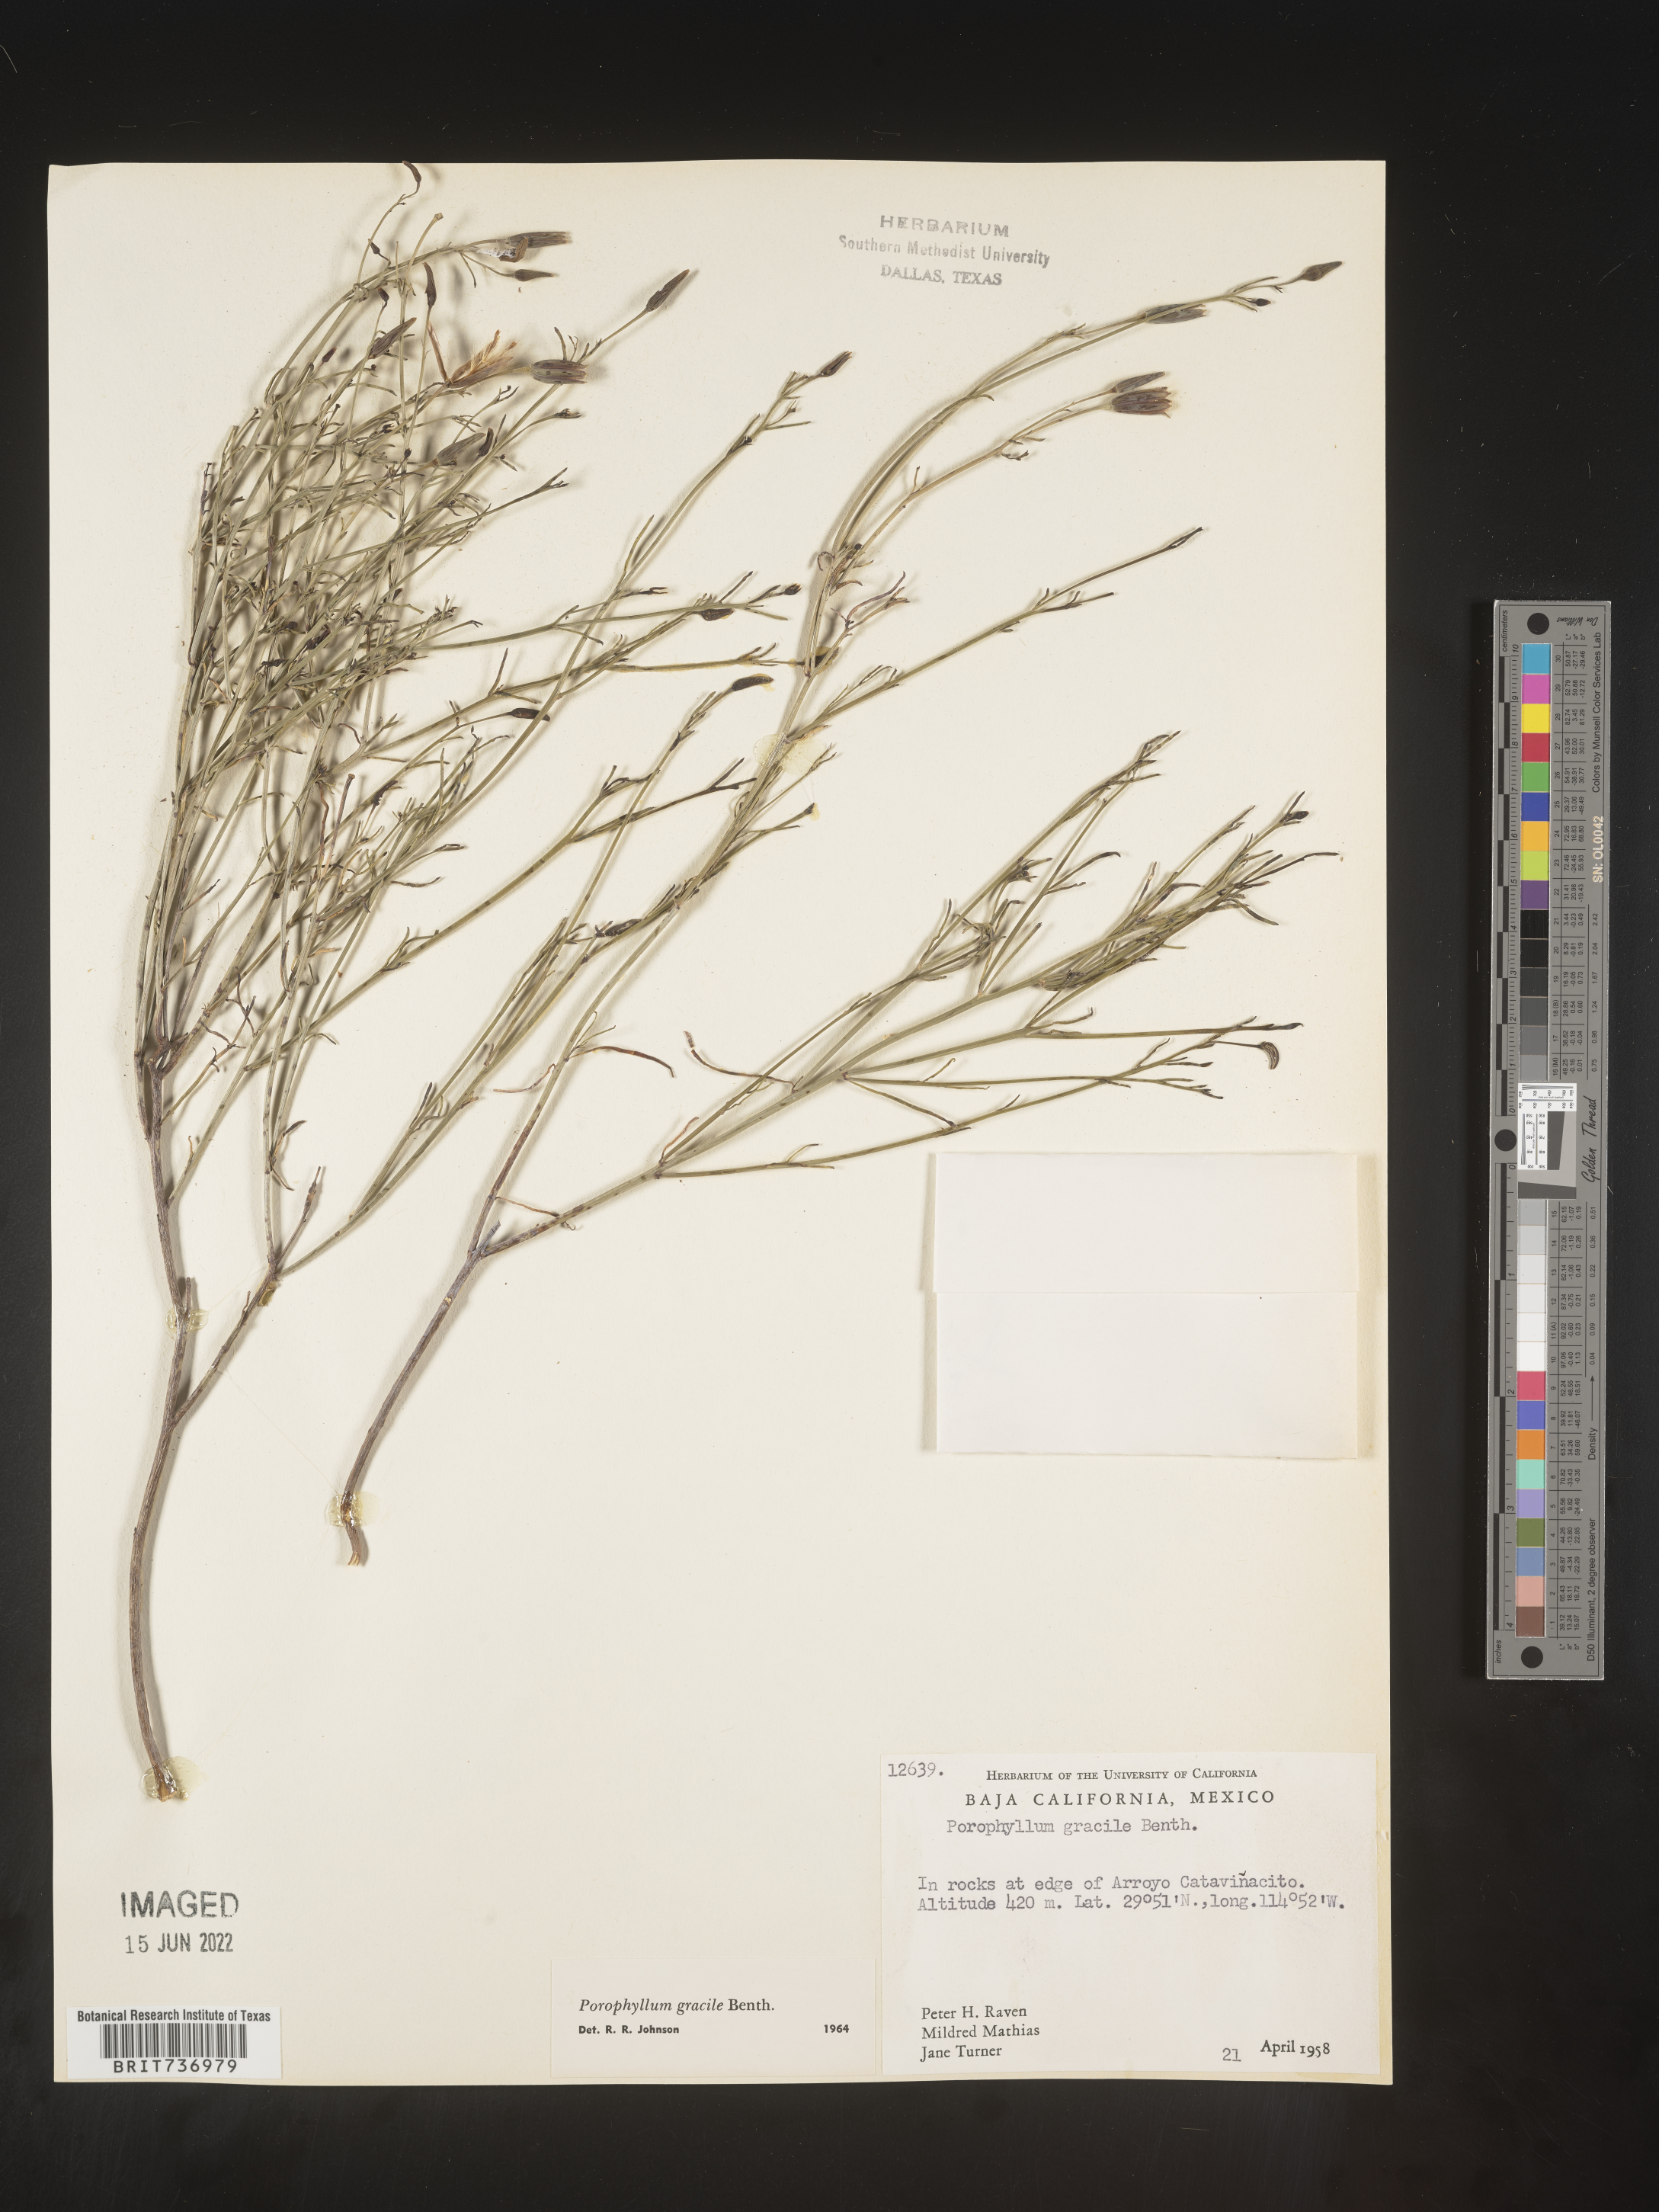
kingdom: Plantae
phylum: Tracheophyta
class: Magnoliopsida
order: Asterales
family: Asteraceae
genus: Porophyllum
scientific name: Porophyllum
